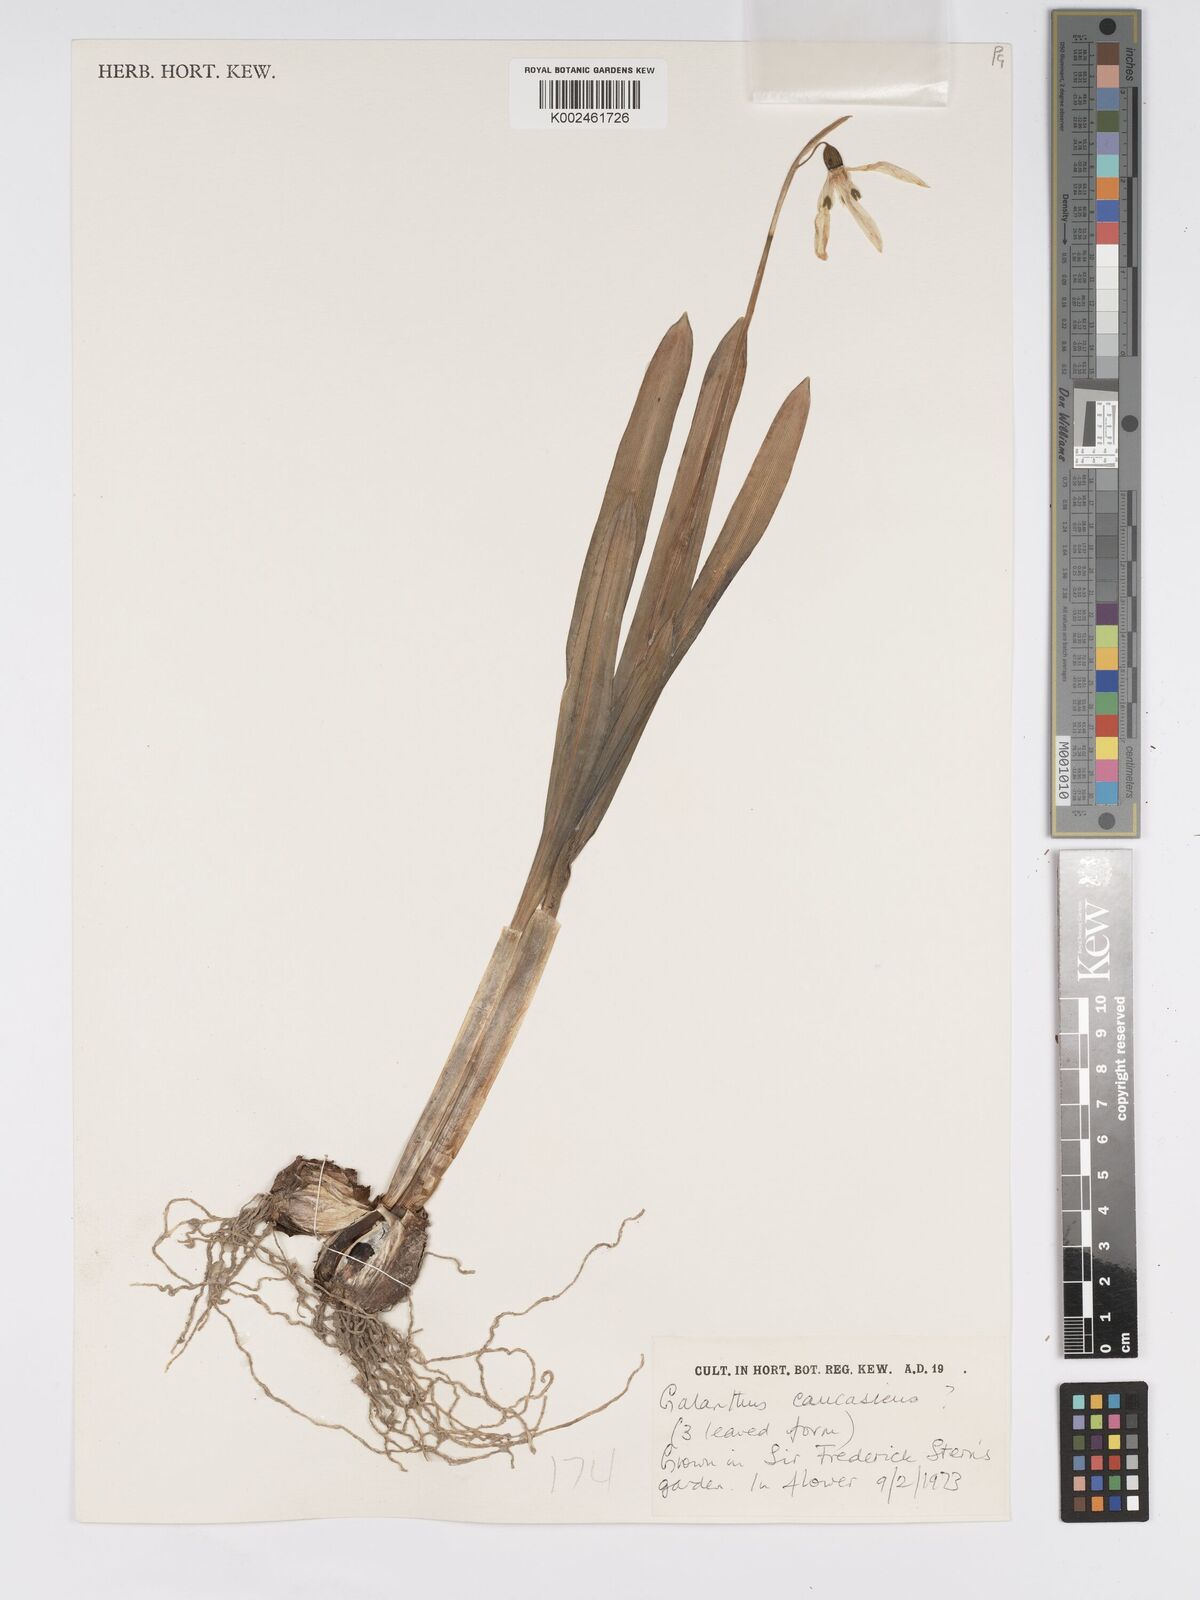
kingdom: Plantae
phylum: Tracheophyta
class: Liliopsida
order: Asparagales
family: Amaryllidaceae
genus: Galanthus
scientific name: Galanthus alpinus
